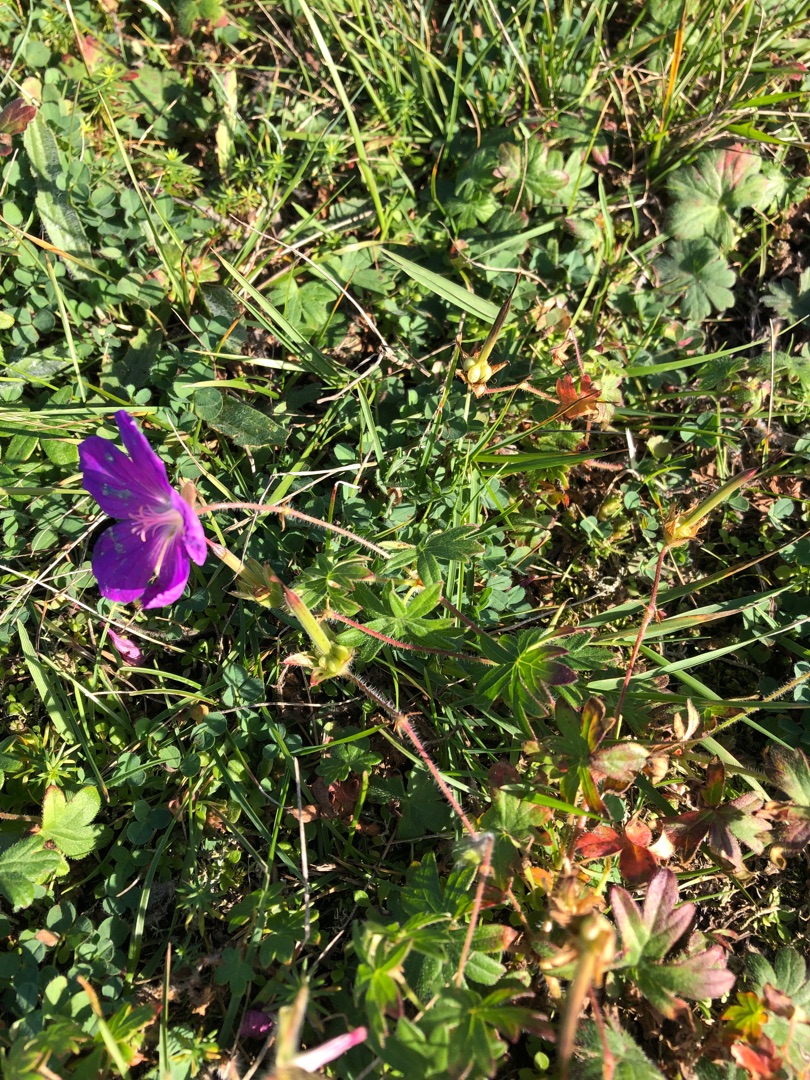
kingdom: Plantae
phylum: Tracheophyta
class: Magnoliopsida
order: Geraniales
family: Geraniaceae
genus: Geranium
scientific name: Geranium sanguineum
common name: Blodrød storkenæb
